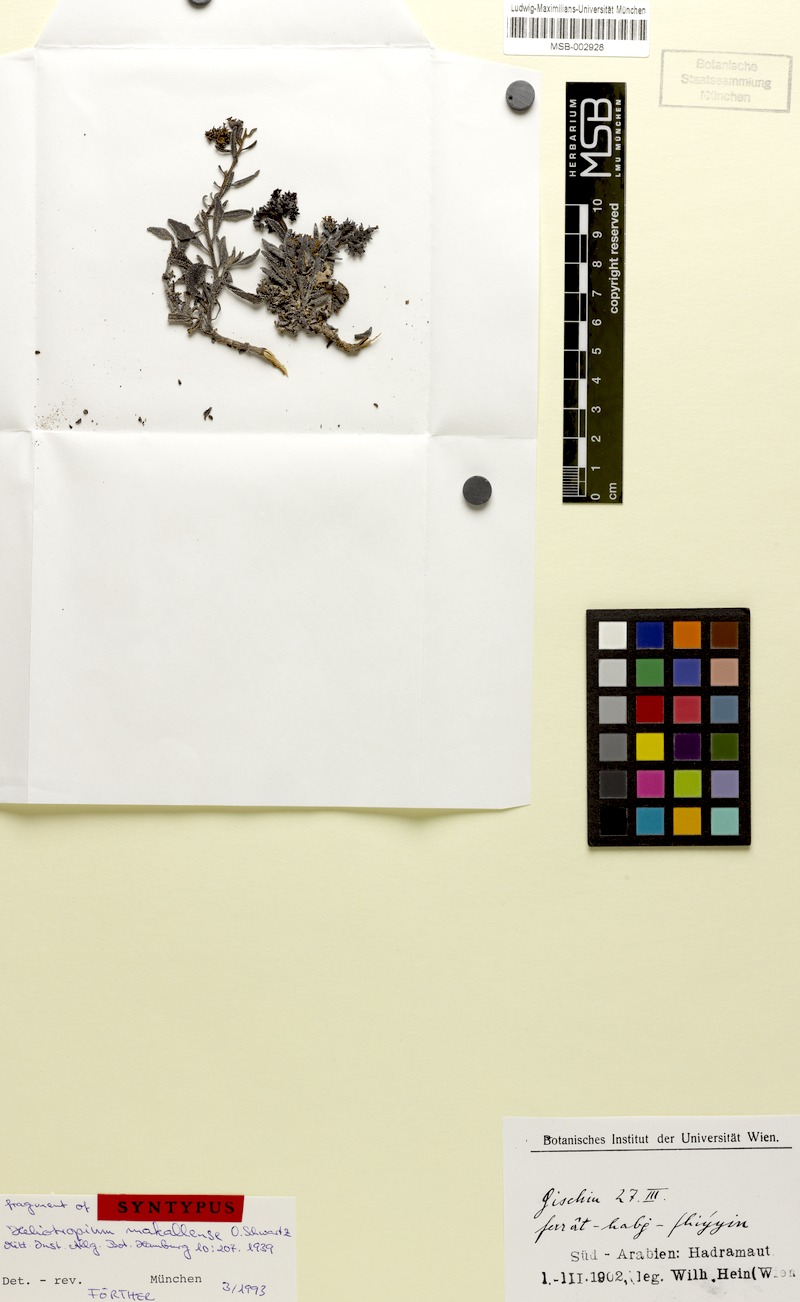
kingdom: Plantae
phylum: Tracheophyta
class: Magnoliopsida
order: Boraginales
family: Heliotropiaceae
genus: Heliotropium
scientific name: Heliotropium bacciferum
